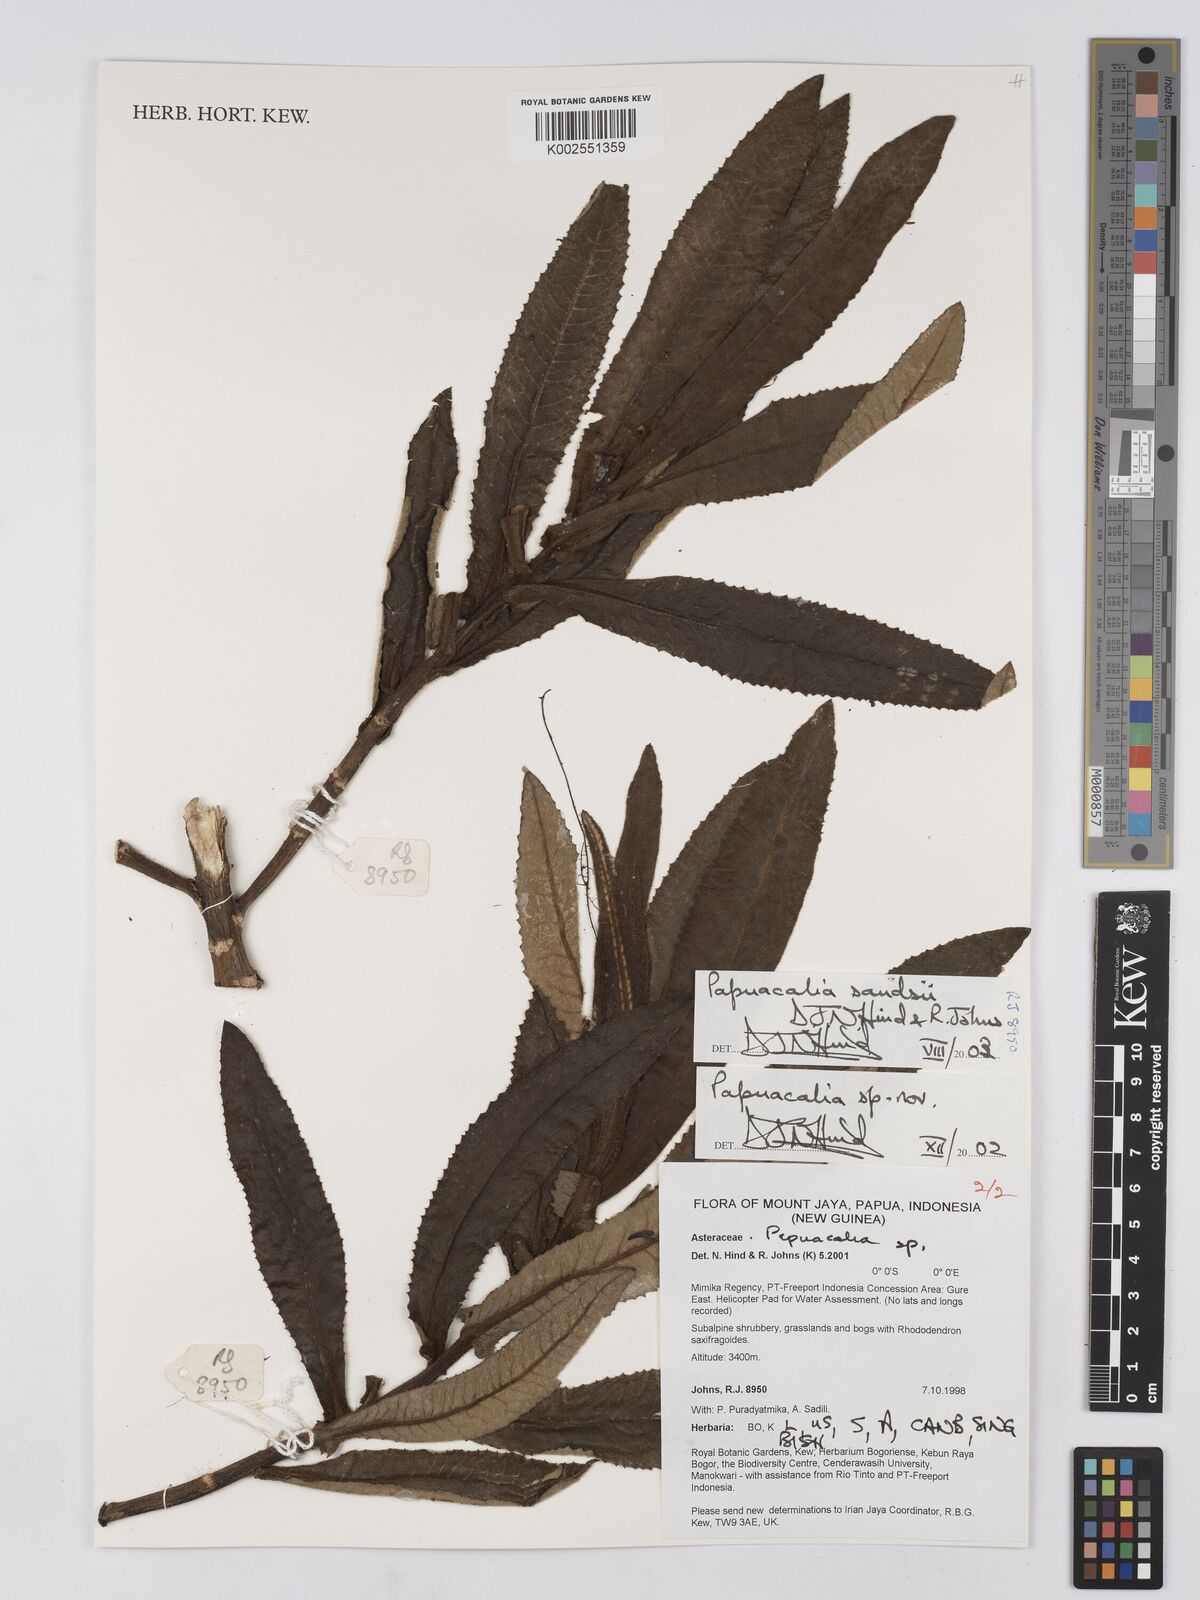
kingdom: Plantae
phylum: Tracheophyta
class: Magnoliopsida
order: Asterales
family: Asteraceae
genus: Papuacalia
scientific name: Papuacalia sandsii
